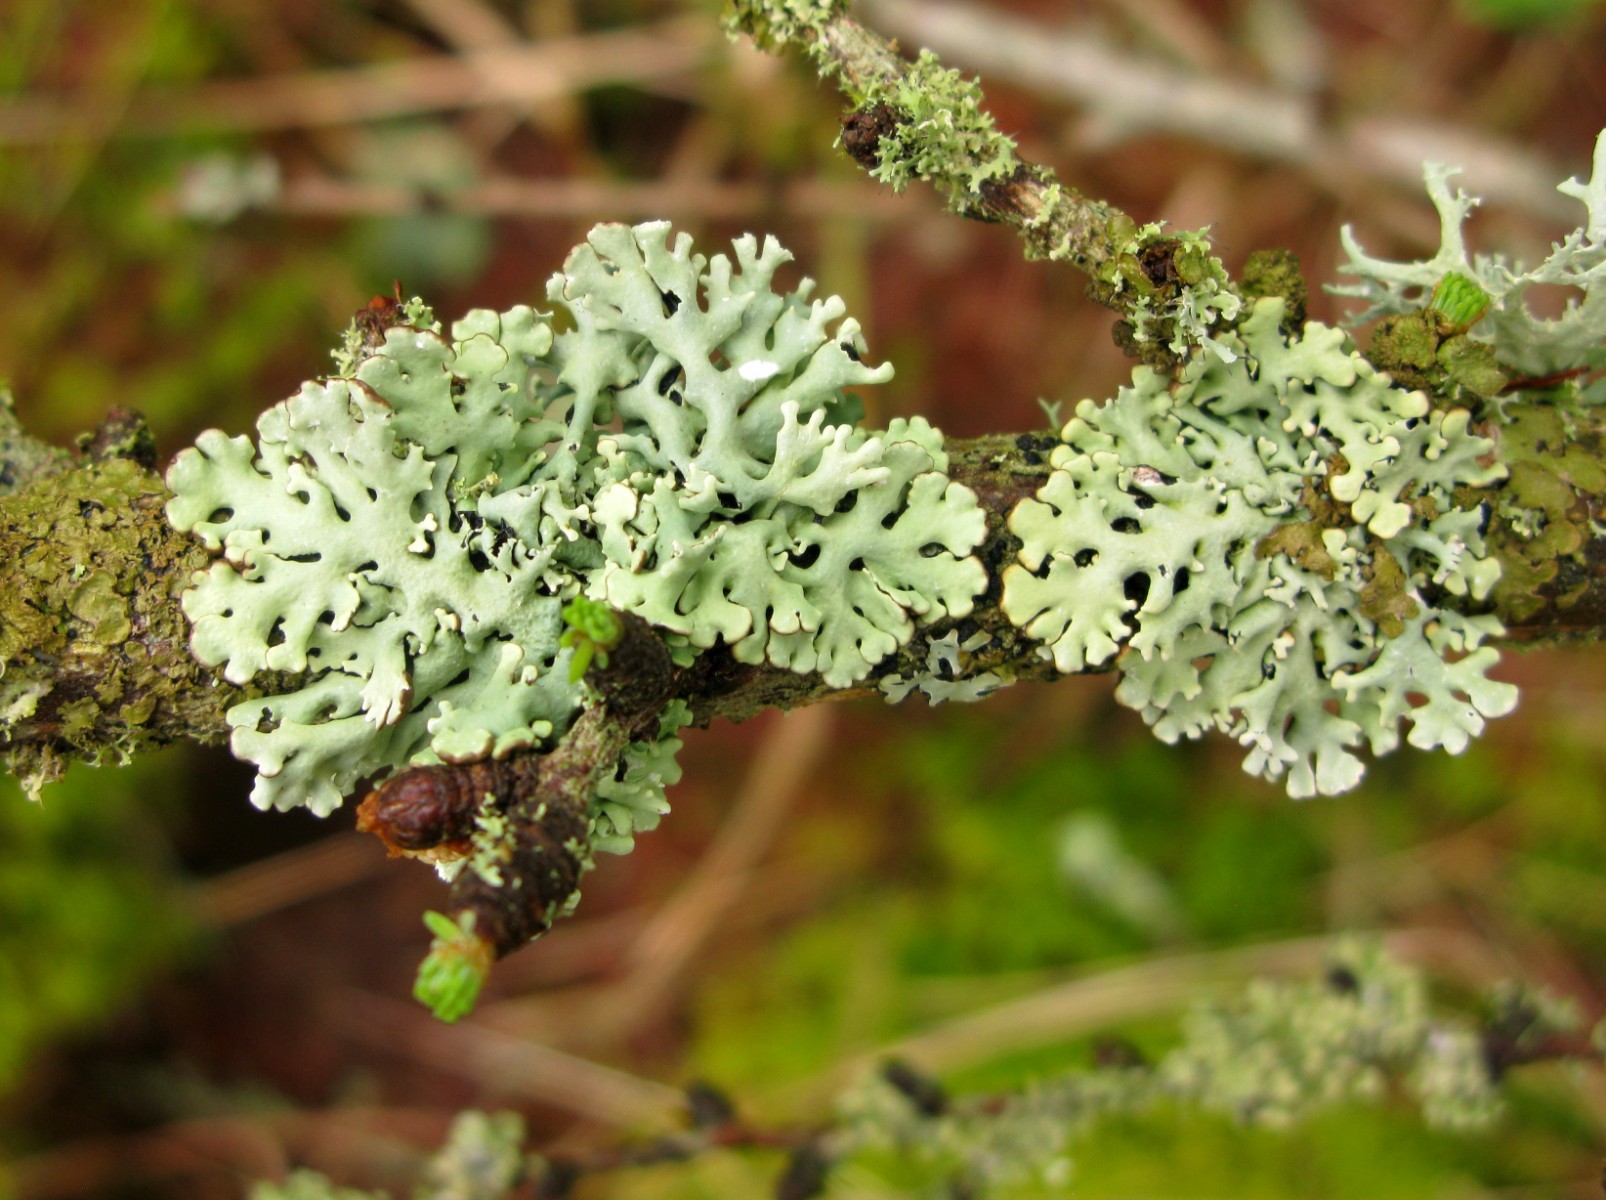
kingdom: Fungi
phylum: Ascomycota
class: Lecanoromycetes
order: Lecanorales
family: Parmeliaceae
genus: Hypogymnia
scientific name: Hypogymnia physodes
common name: almindelig kvistlav
